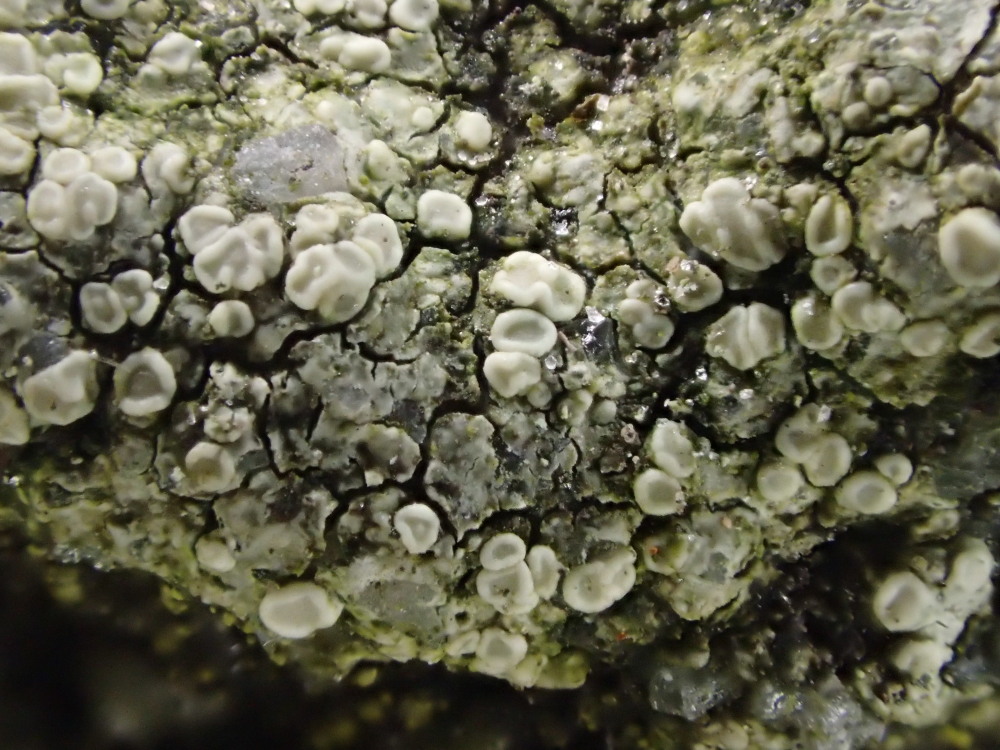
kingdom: Fungi
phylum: Ascomycota
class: Lecanoromycetes
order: Lecanorales
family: Lecanoraceae
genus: Lecanora
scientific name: Lecanora polytropa
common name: bleggrøn kantskivelav
